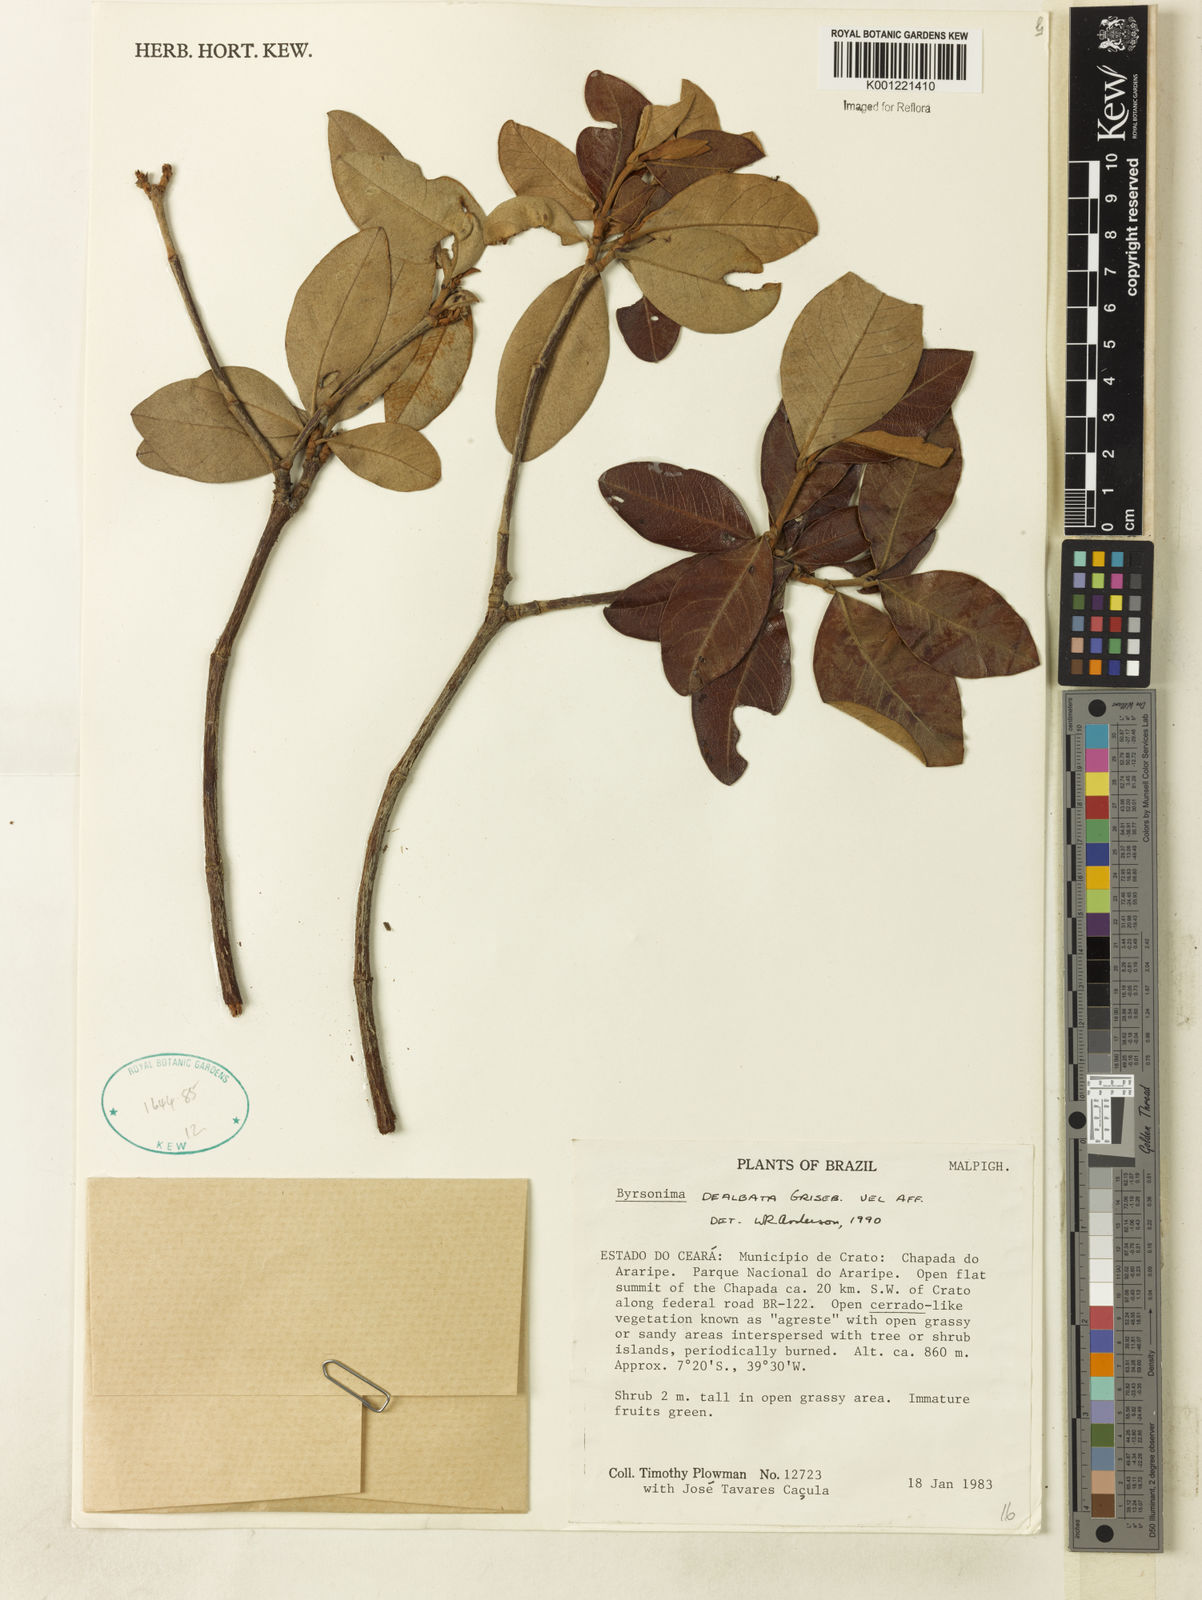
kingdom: Plantae
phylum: Tracheophyta
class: Magnoliopsida
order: Malpighiales
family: Malpighiaceae
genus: Byrsonima
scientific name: Byrsonima dealbata
